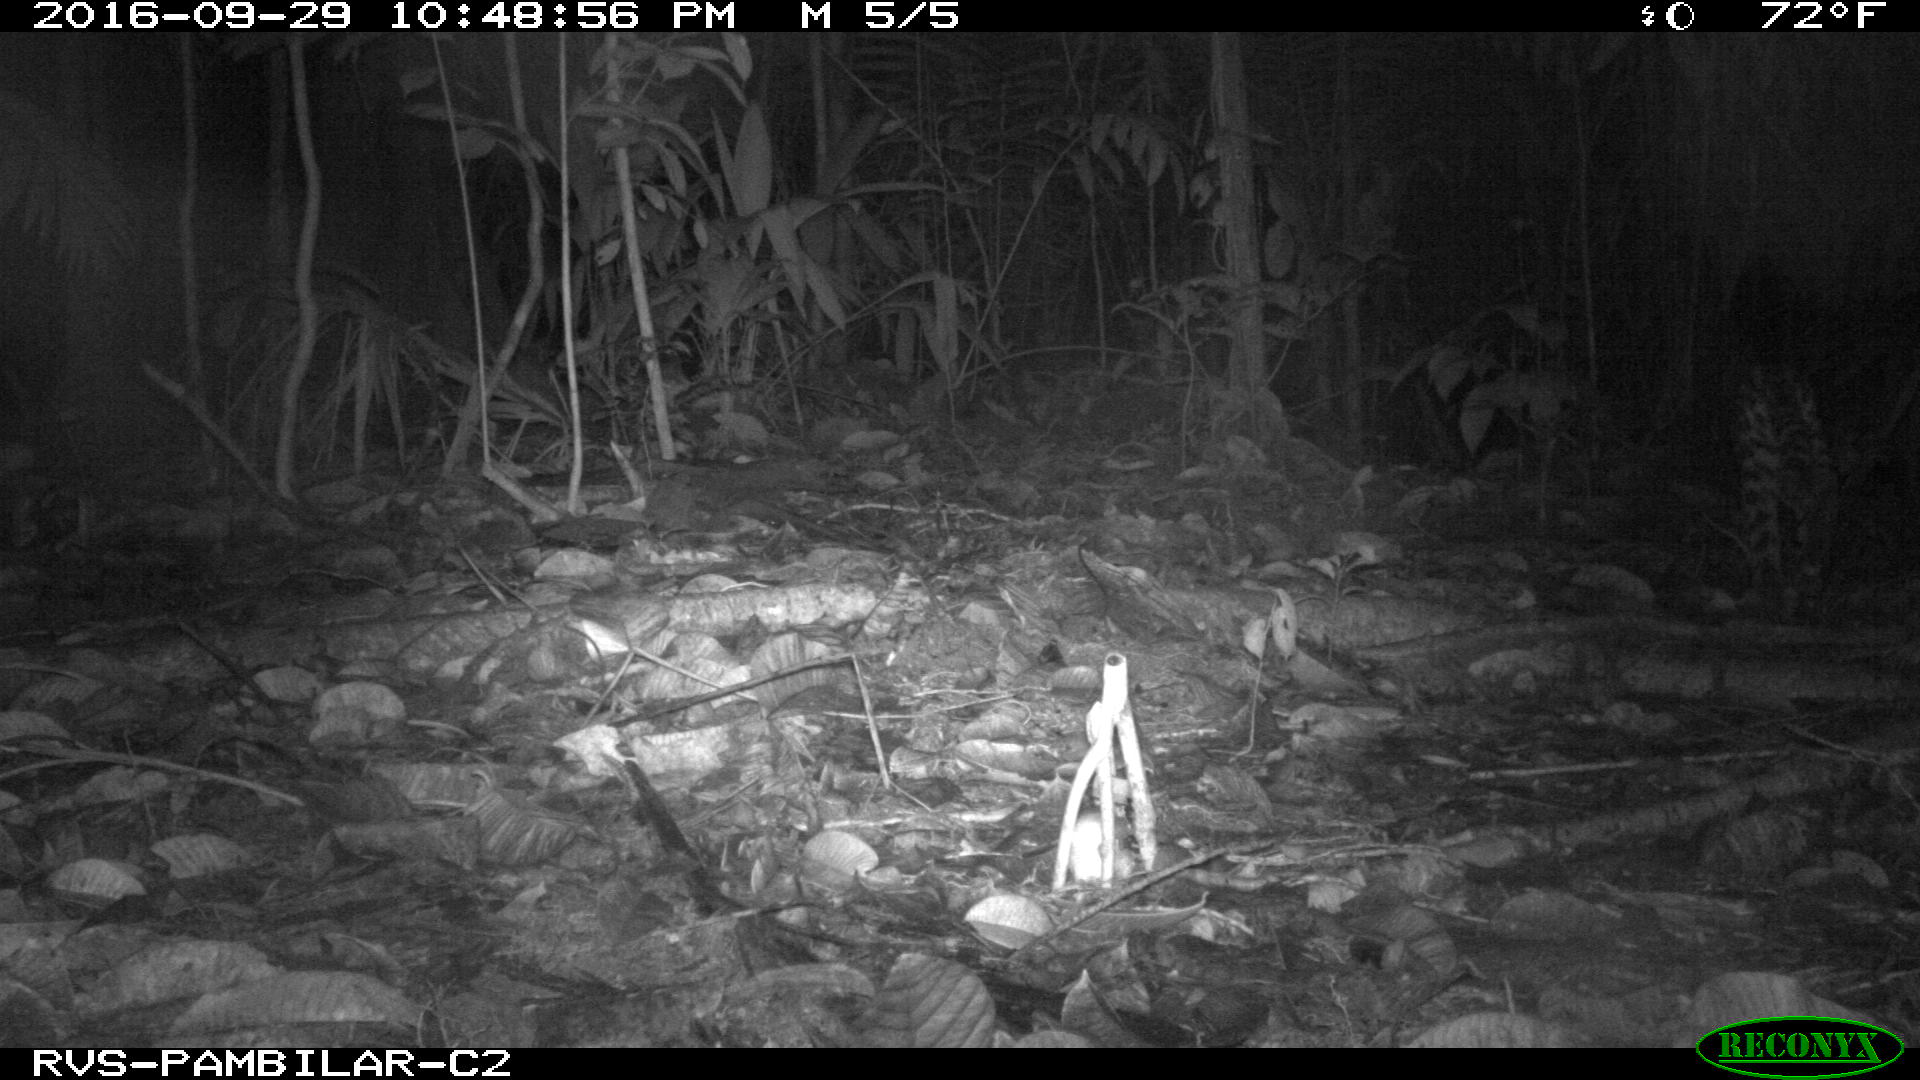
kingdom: Animalia
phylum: Chordata
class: Mammalia
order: Carnivora
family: Felidae
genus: Leopardus
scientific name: Leopardus pardalis
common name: Ocelot
